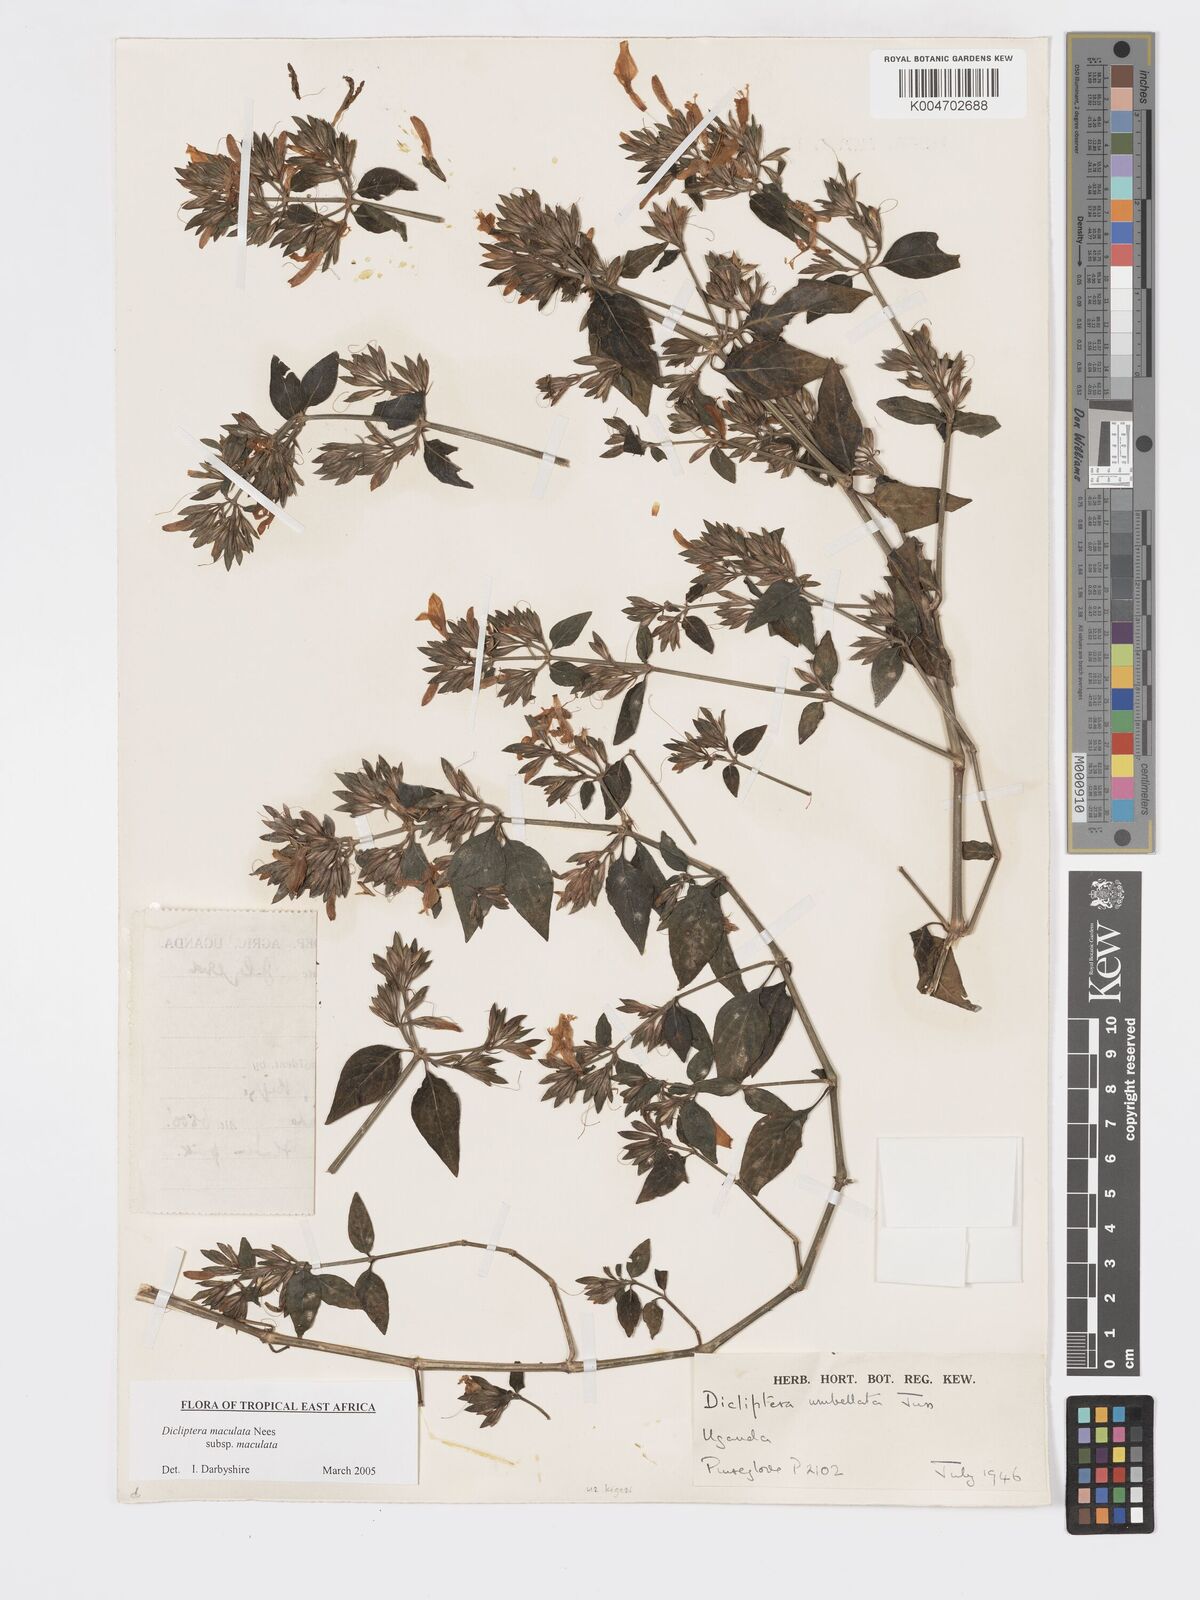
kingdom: Plantae
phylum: Tracheophyta
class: Magnoliopsida
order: Lamiales
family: Acanthaceae
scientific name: Acanthaceae
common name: Acanthaceae
